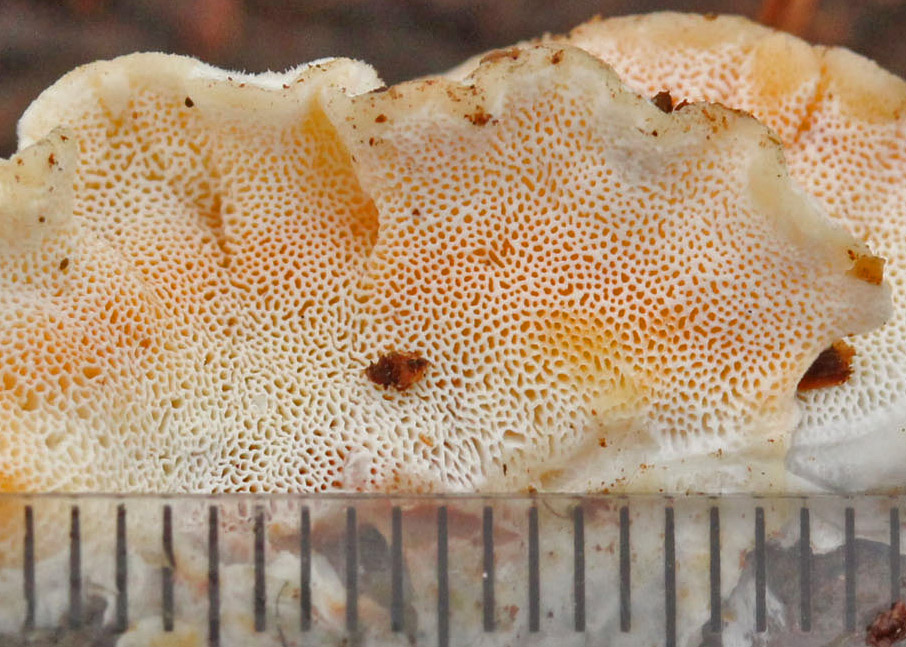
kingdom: Fungi
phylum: Basidiomycota
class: Agaricomycetes
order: Polyporales
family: Incrustoporiaceae
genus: Skeletocutis
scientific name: Skeletocutis amorpha
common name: orange krystalporesvamp
